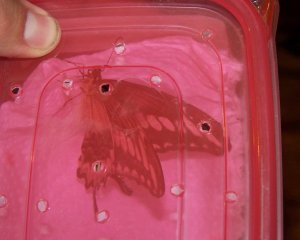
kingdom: Animalia
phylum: Arthropoda
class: Insecta
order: Lepidoptera
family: Papilionidae
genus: Papilio
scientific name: Papilio ornythion
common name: Ornythion Swallowtail
